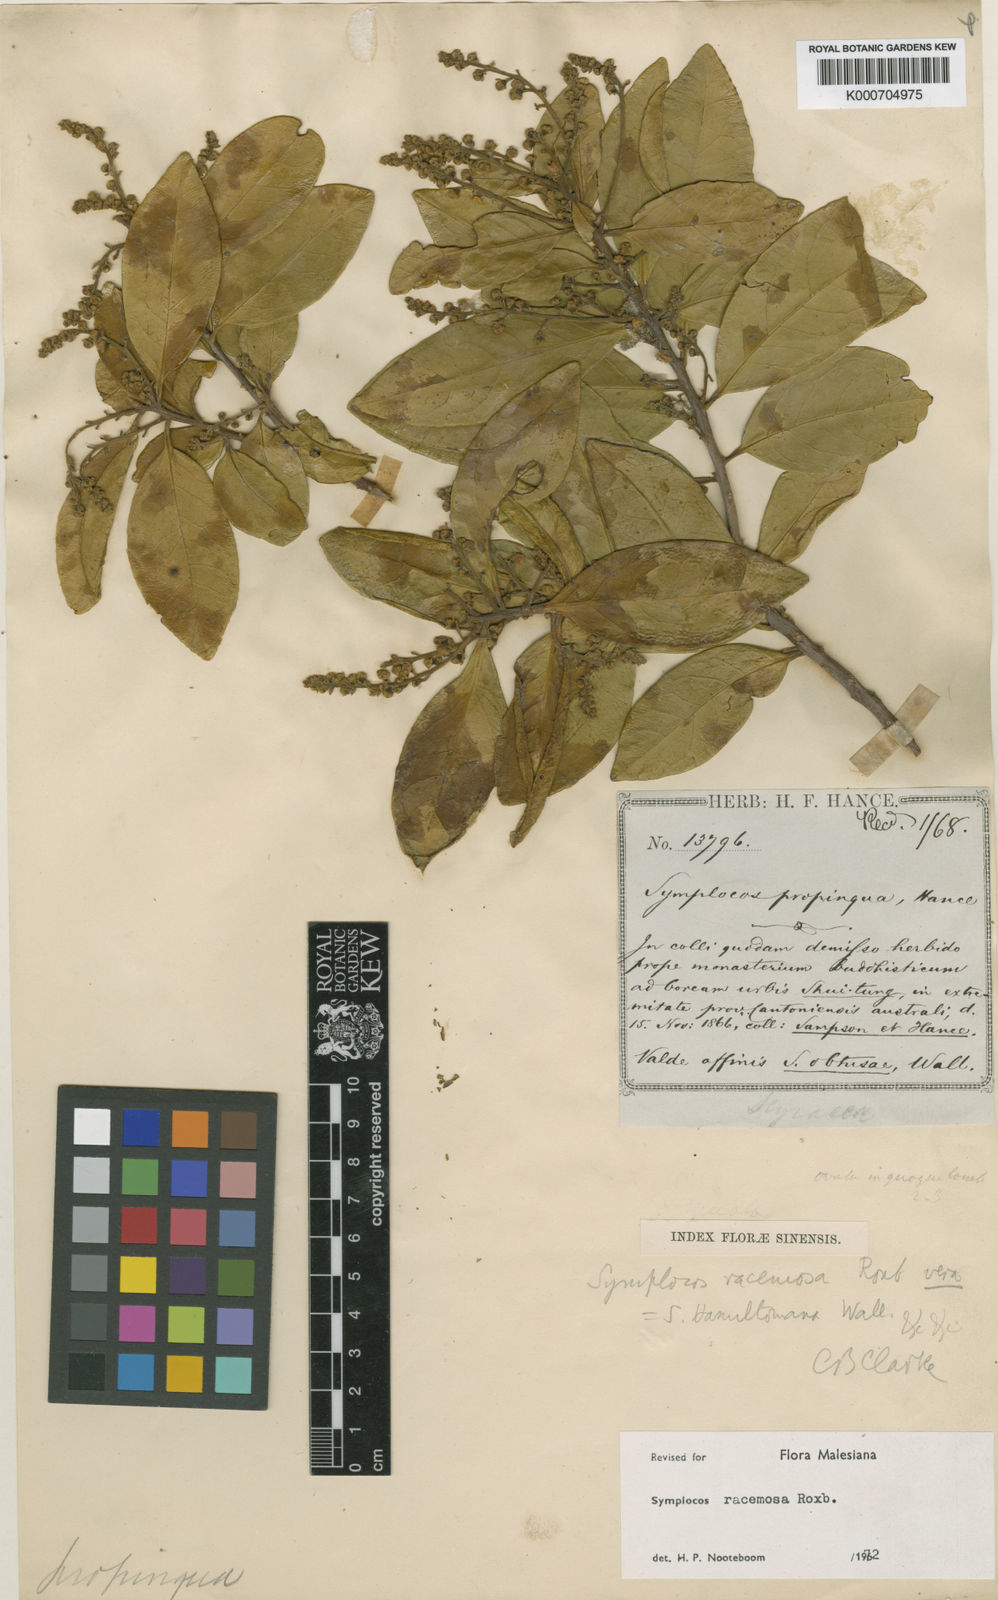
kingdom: Plantae
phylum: Tracheophyta
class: Magnoliopsida
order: Ericales
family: Symplocaceae
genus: Symplocos
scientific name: Symplocos racemosa
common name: Lodhtree
